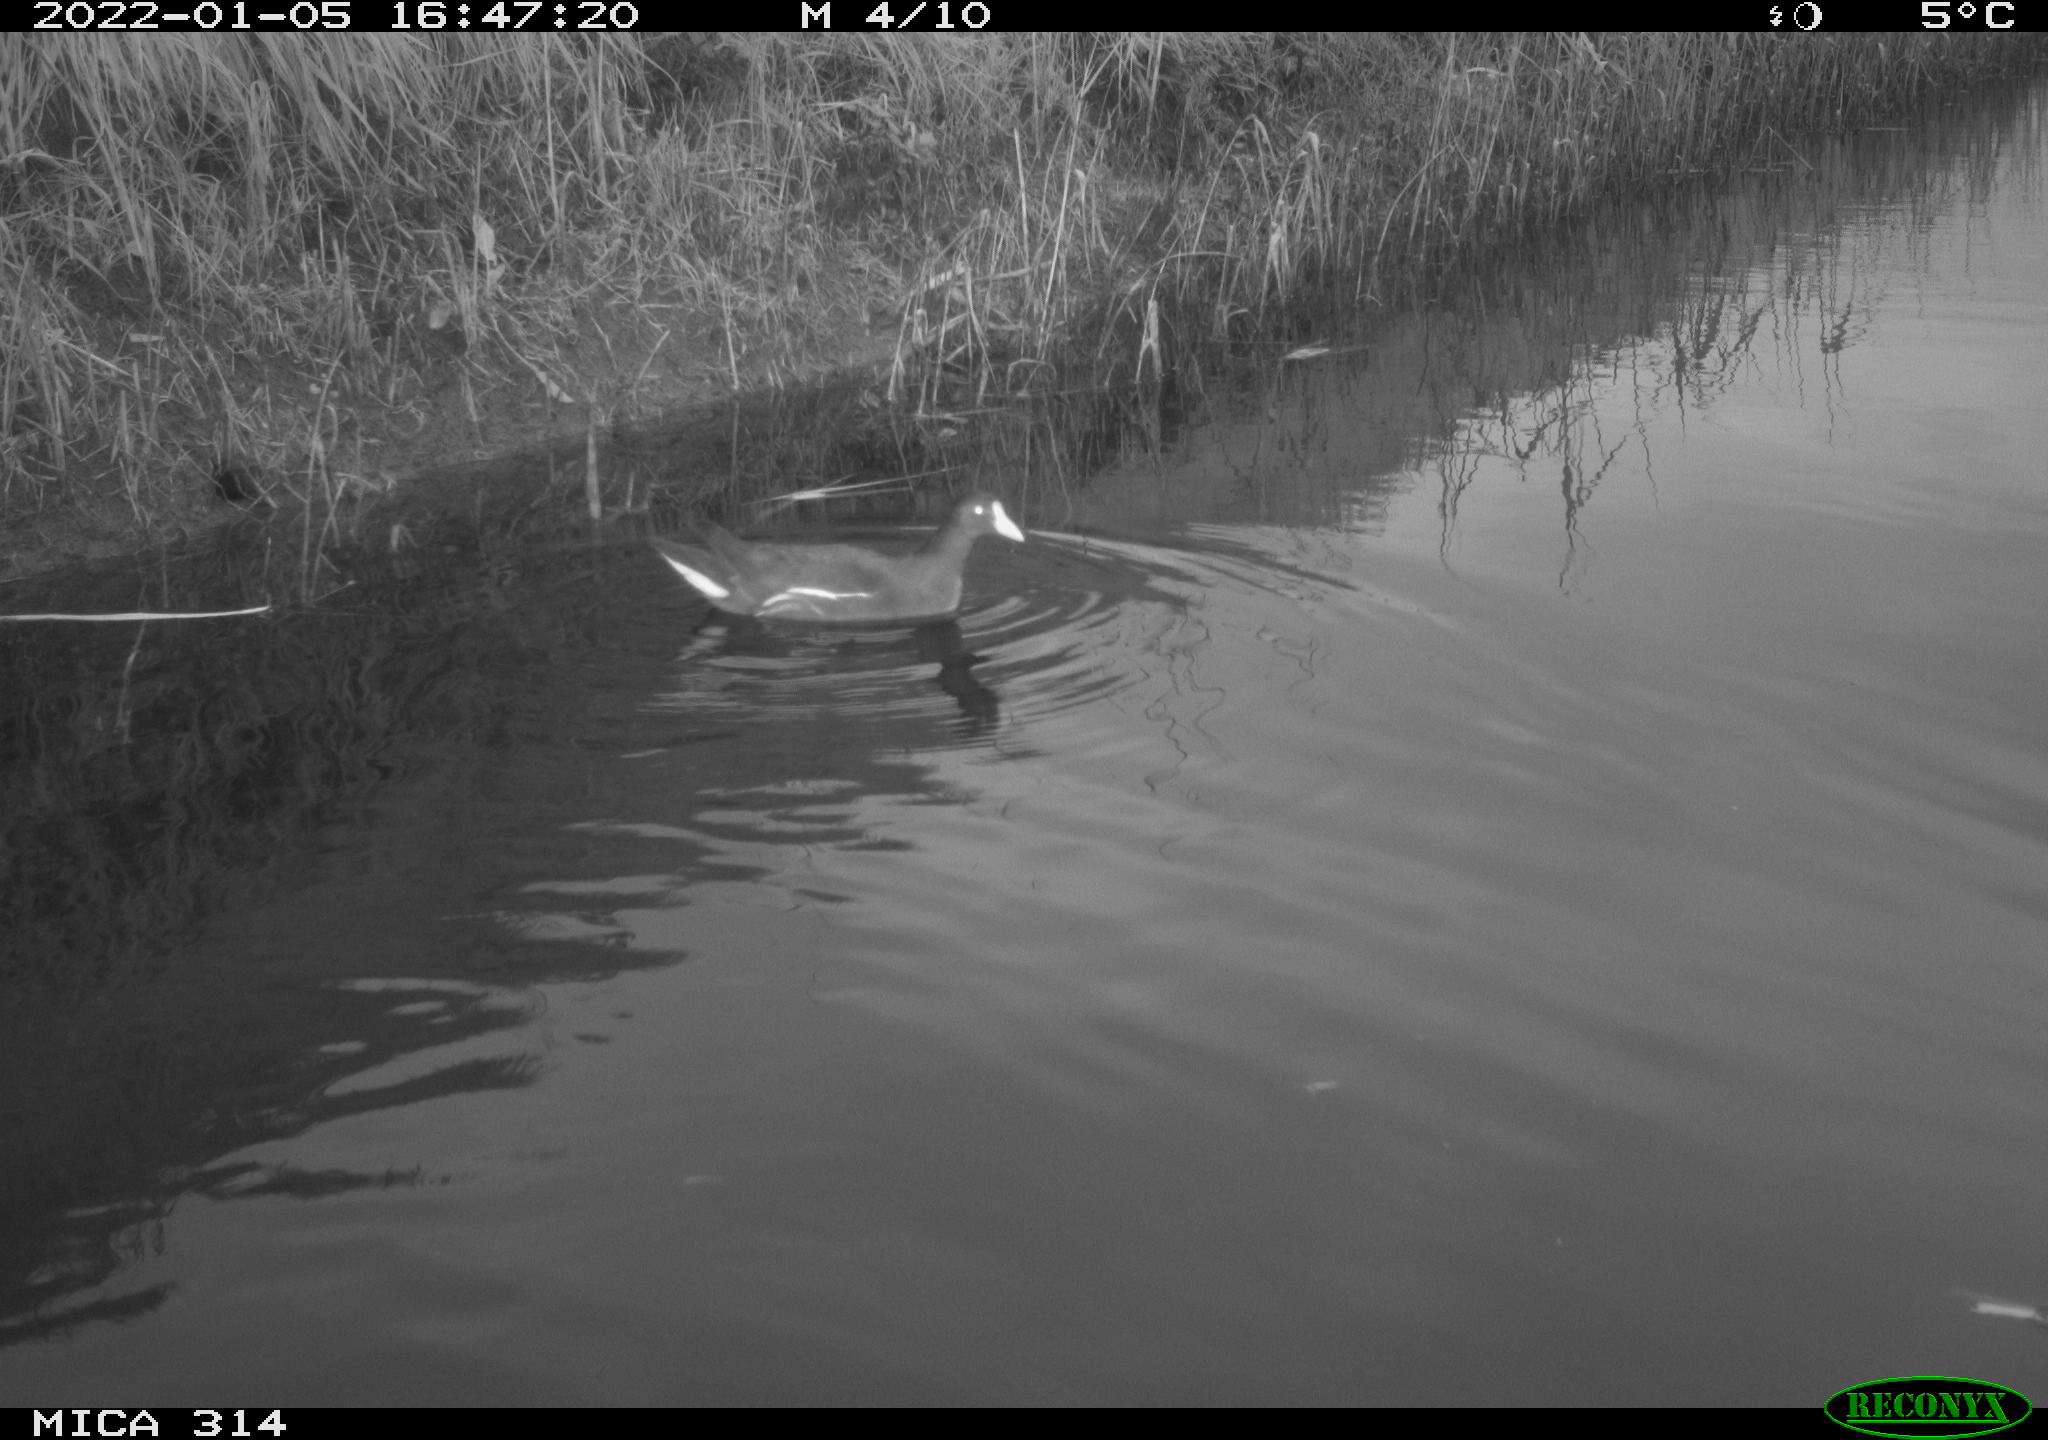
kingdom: Animalia
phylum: Chordata
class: Aves
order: Gruiformes
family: Rallidae
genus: Gallinula
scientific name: Gallinula chloropus
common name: Common moorhen
